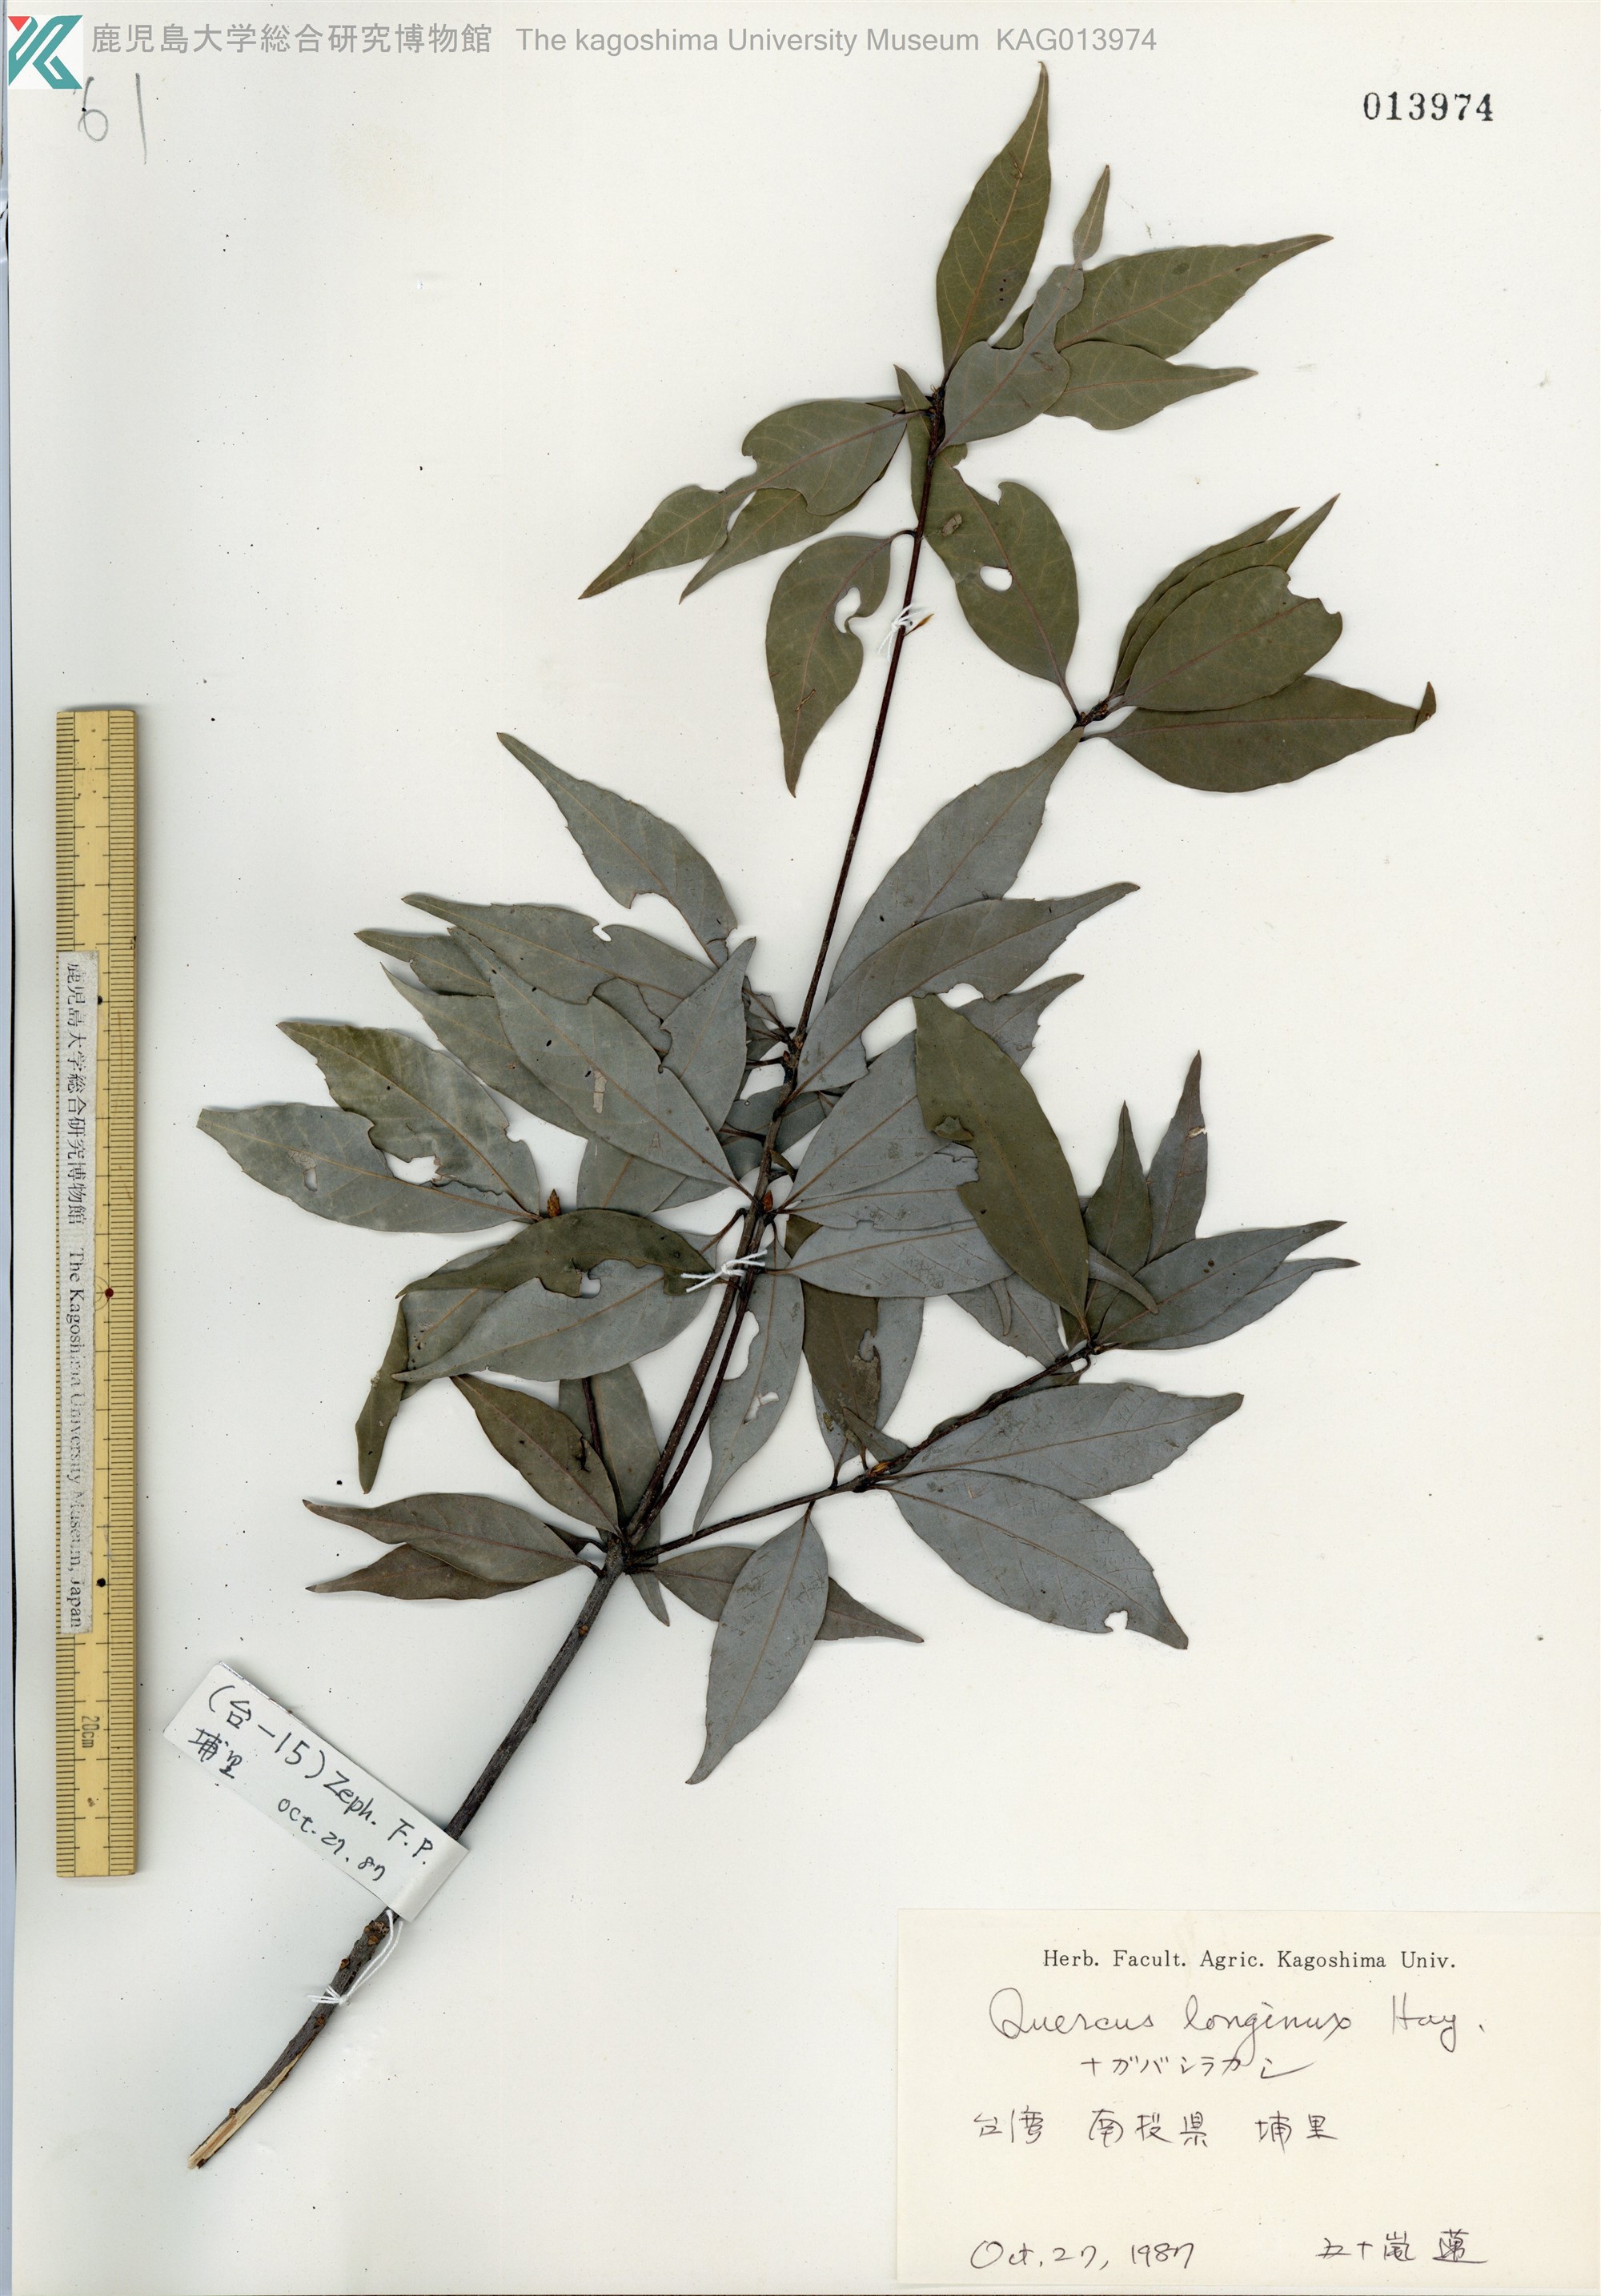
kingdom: Plantae
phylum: Tracheophyta
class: Magnoliopsida
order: Fagales
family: Fagaceae
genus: Quercus
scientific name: Quercus longinux
